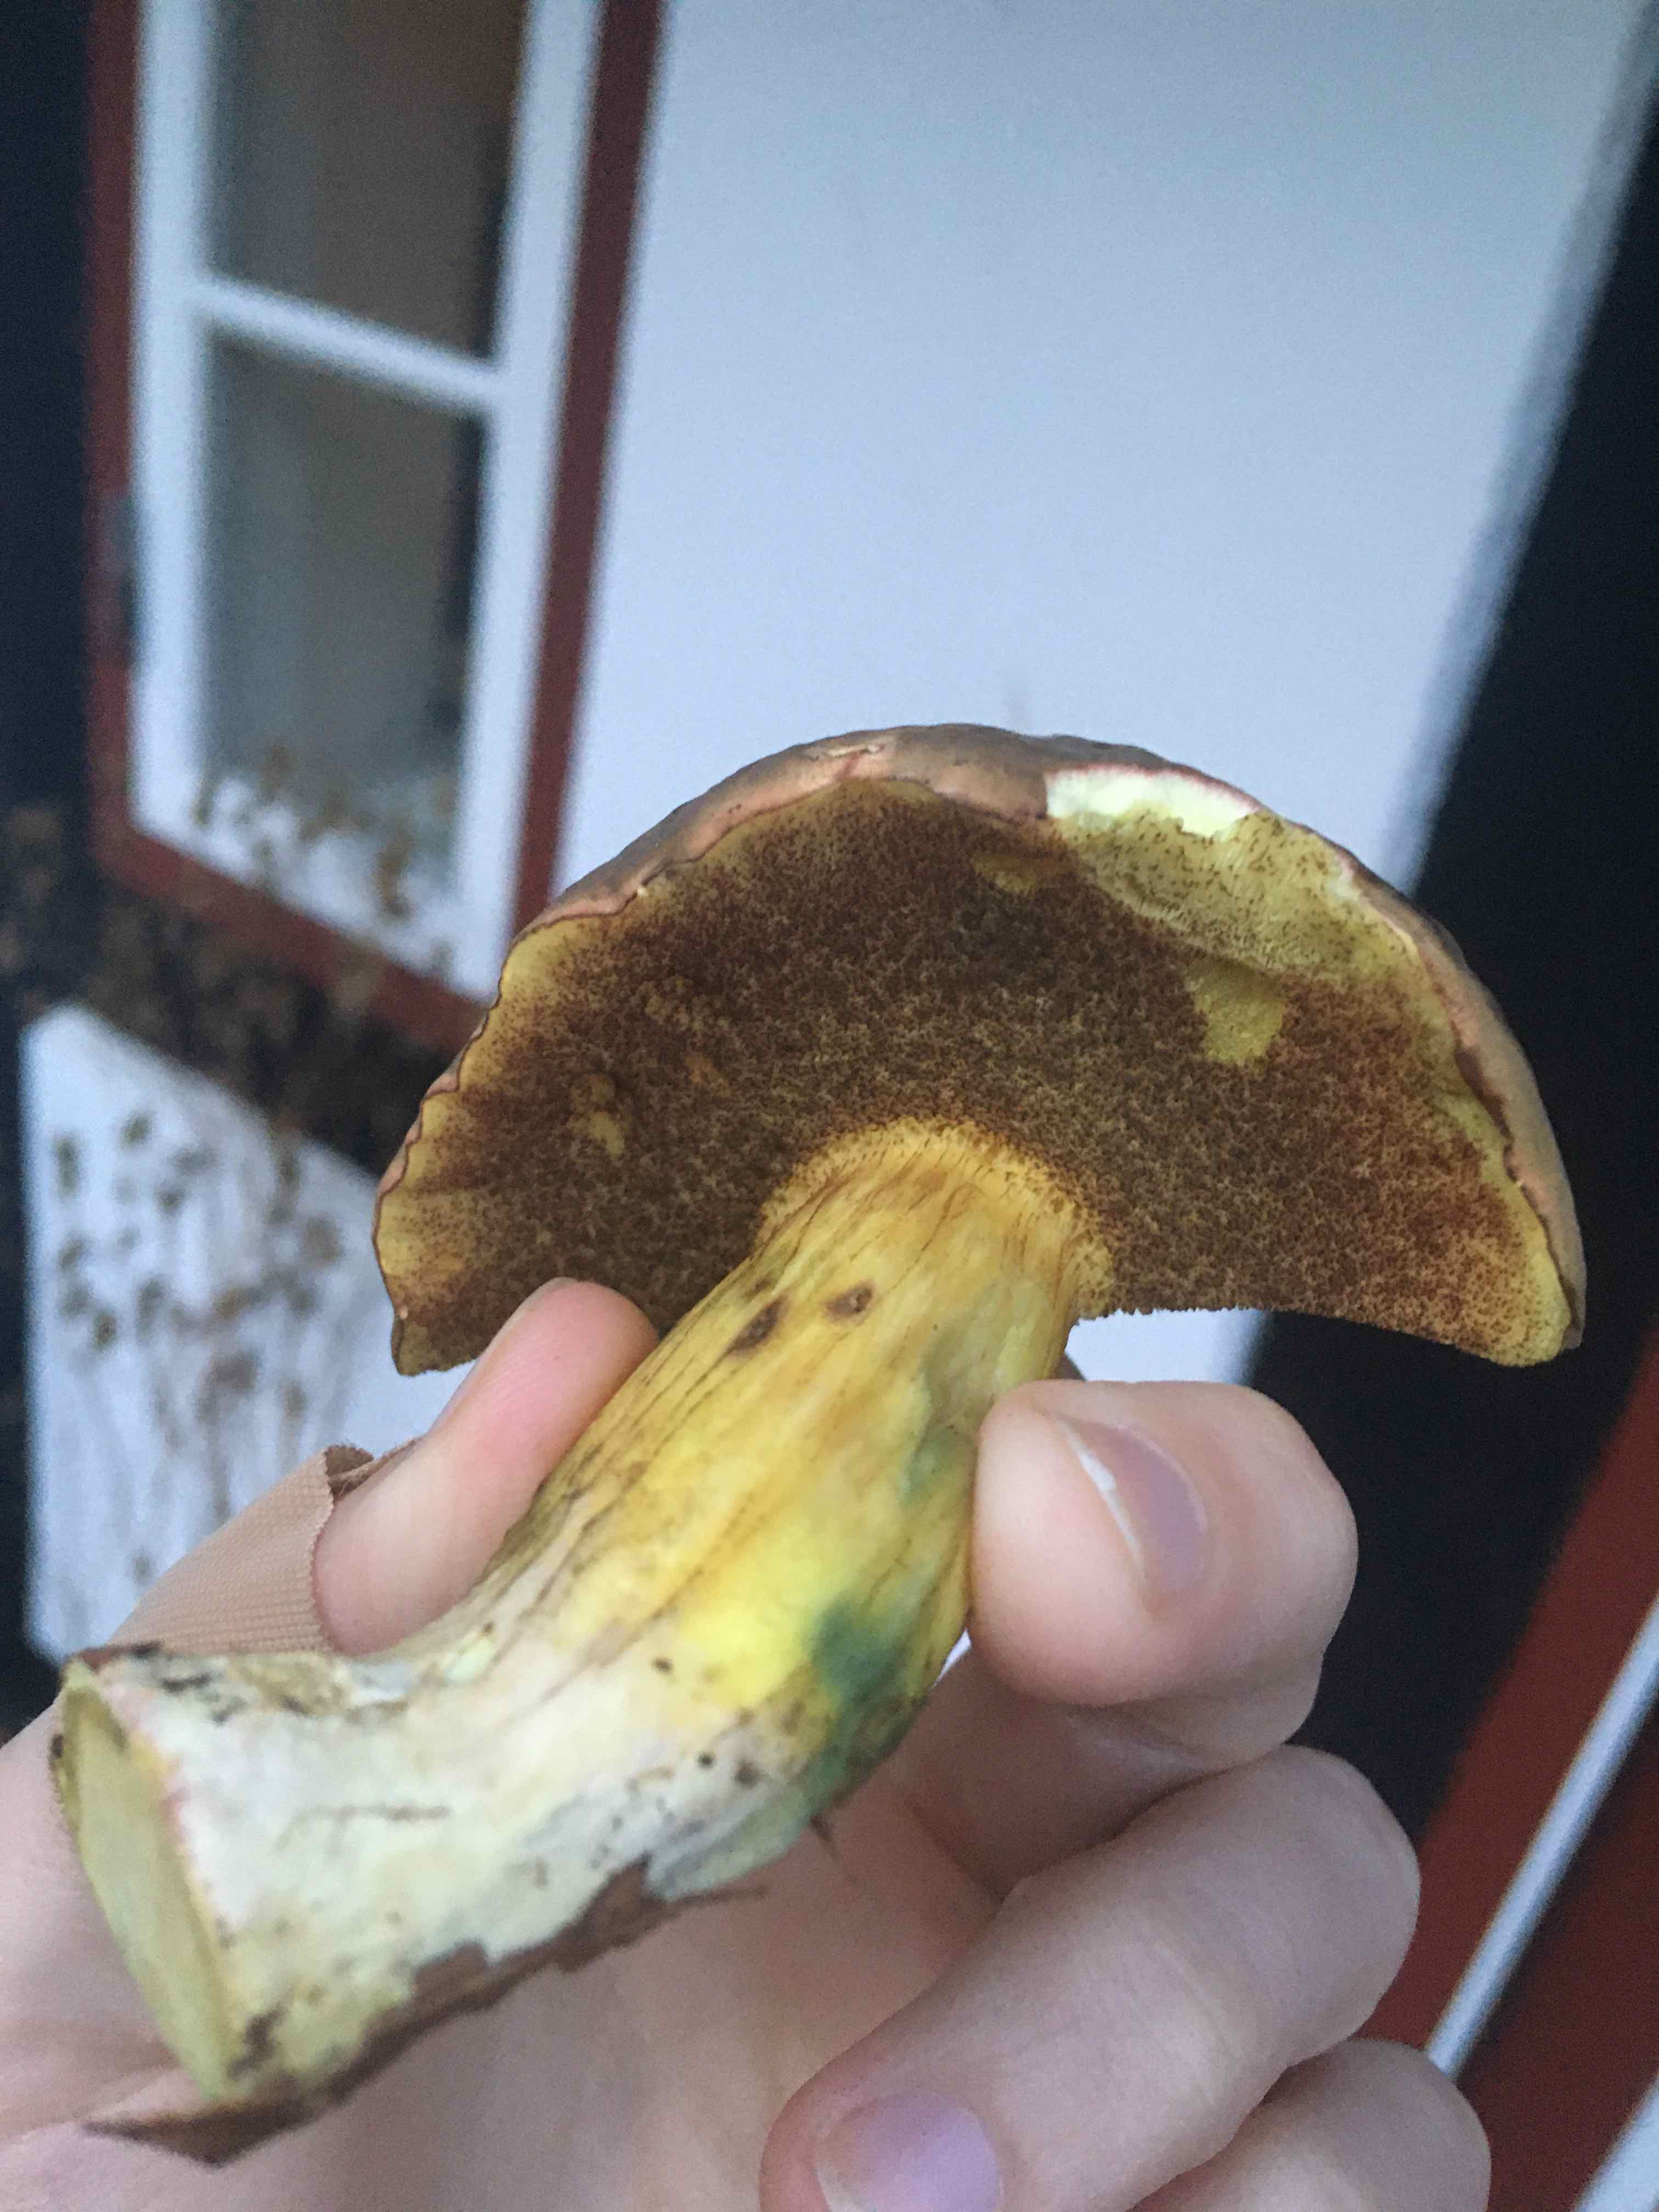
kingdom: Fungi
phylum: Basidiomycota
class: Agaricomycetes
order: Boletales
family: Boletaceae
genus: Xerocomellus
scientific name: Xerocomellus pruinatus
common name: dugget rørhat
